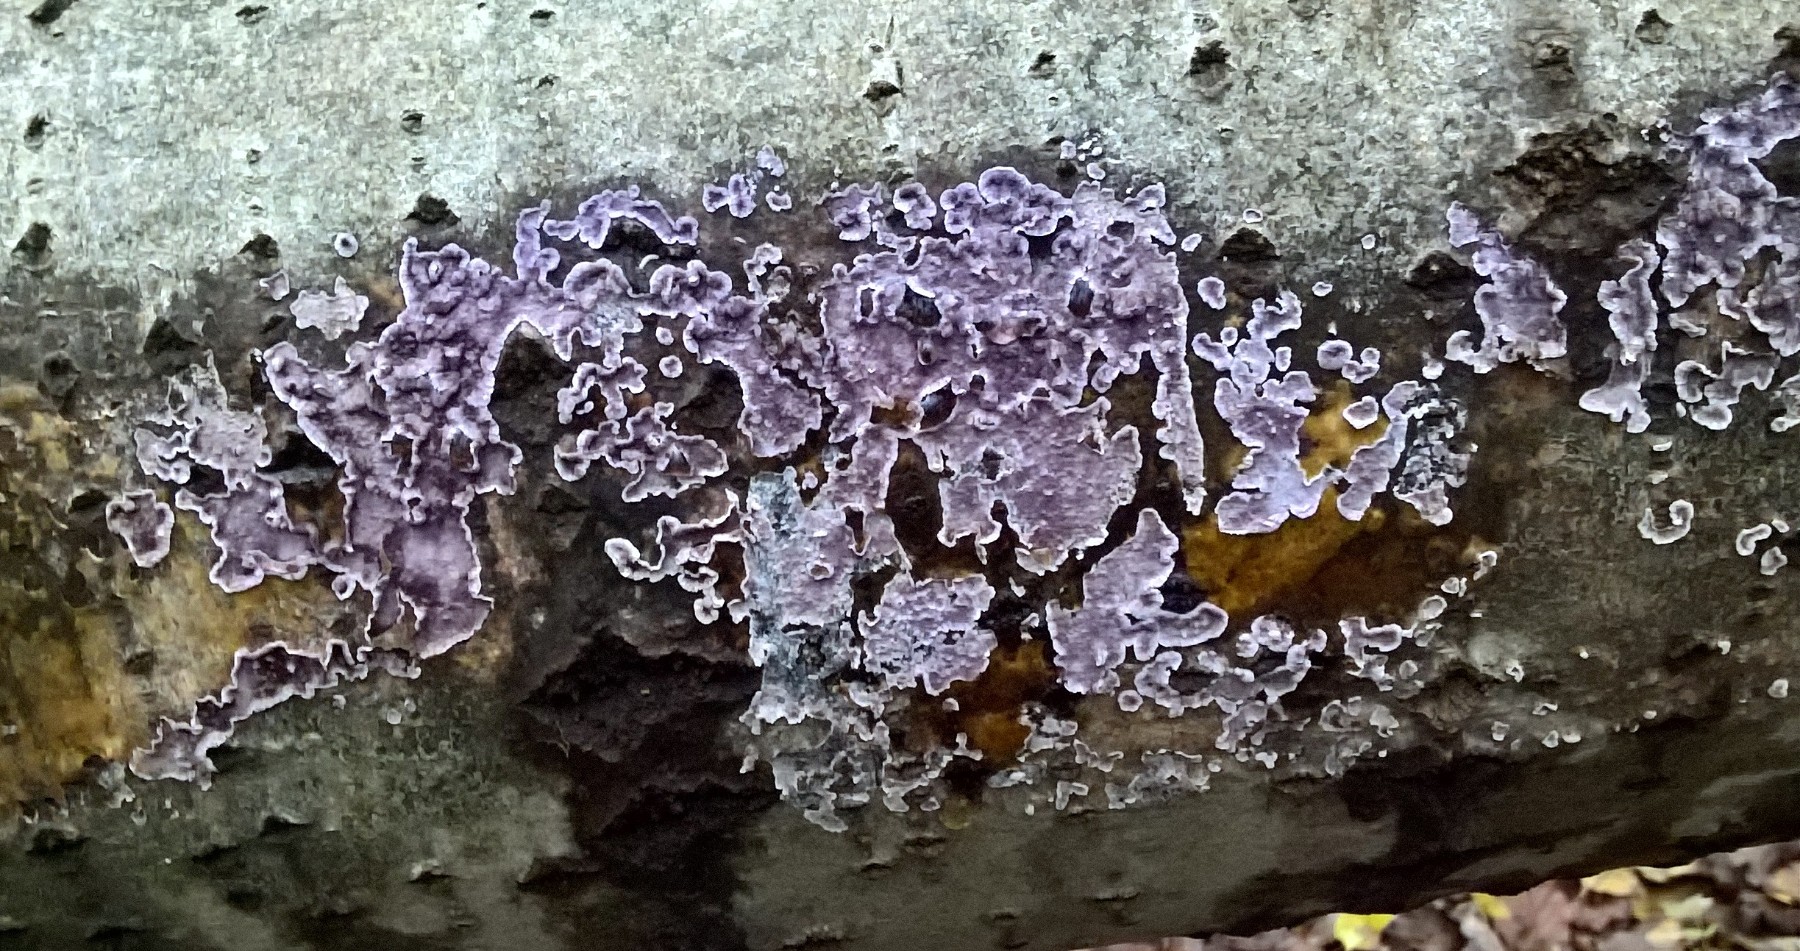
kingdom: Fungi
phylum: Basidiomycota
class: Agaricomycetes
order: Agaricales
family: Cyphellaceae
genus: Chondrostereum
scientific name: Chondrostereum purpureum
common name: purpurlædersvamp
